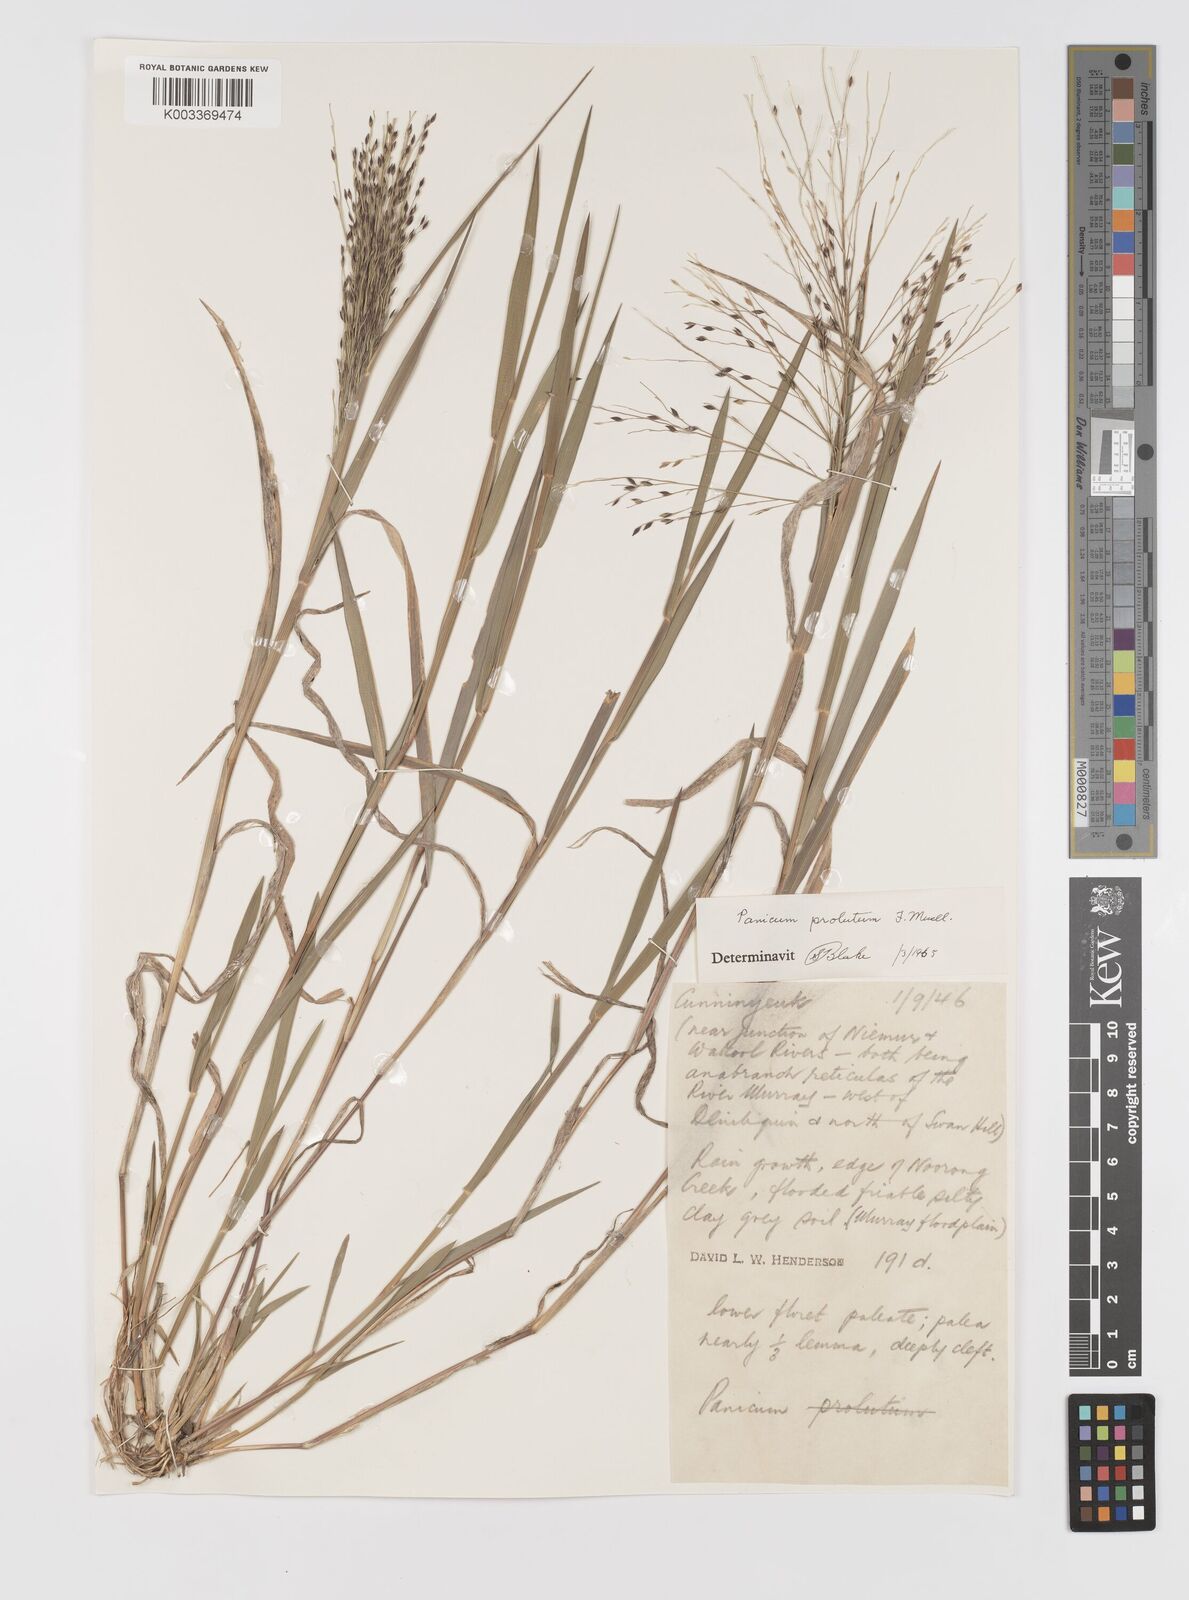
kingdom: Plantae
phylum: Tracheophyta
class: Liliopsida
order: Poales
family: Poaceae
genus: Walwhalleya
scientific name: Walwhalleya proluta
